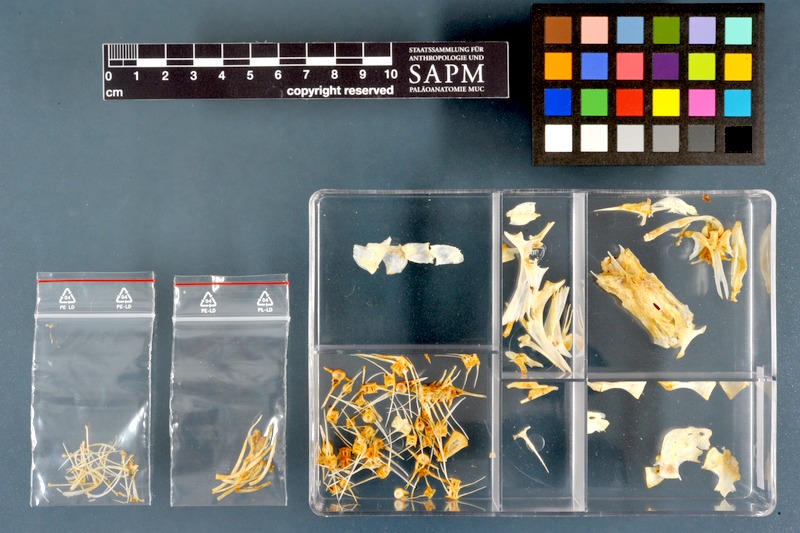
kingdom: Animalia
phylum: Chordata
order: Siluriformes
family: Schilbeidae
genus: Schilbe
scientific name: Schilbe uranoscopus
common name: Egyptian butter catfish
